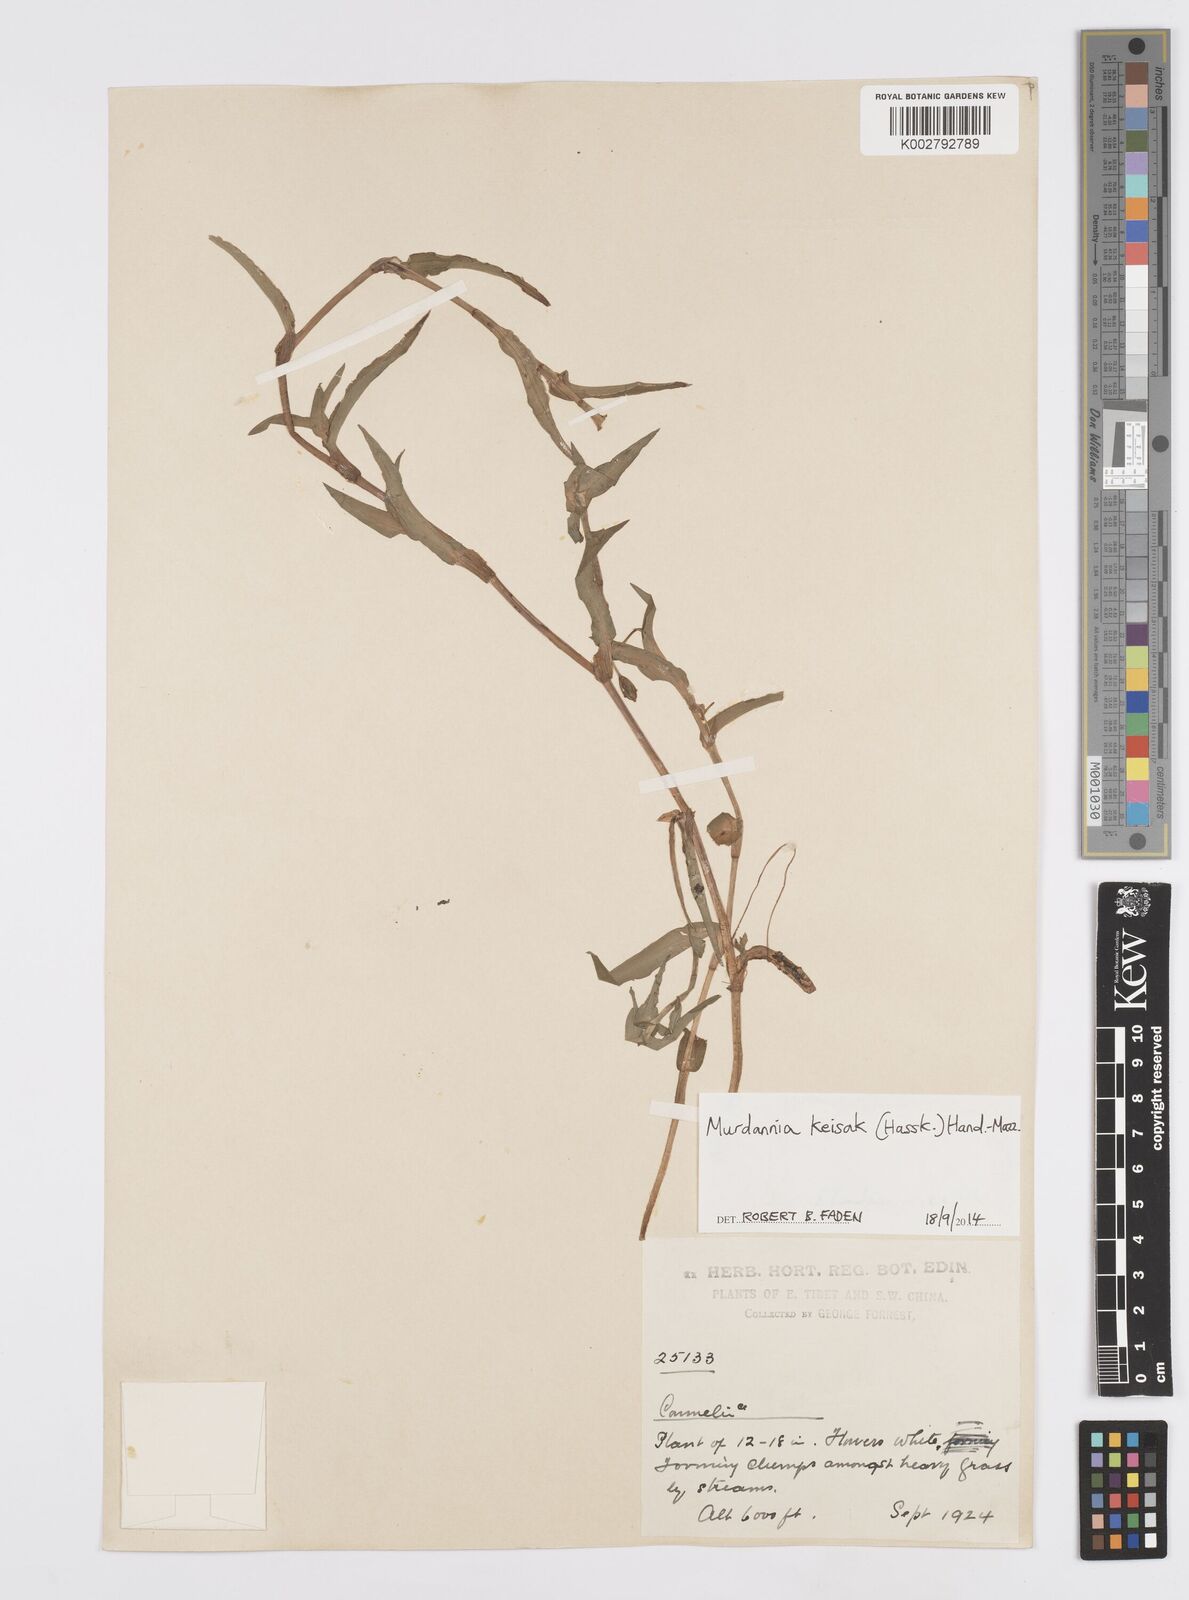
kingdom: Plantae
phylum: Tracheophyta
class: Liliopsida
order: Commelinales
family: Commelinaceae
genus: Murdannia
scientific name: Murdannia keisak
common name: Wartremoving herb
